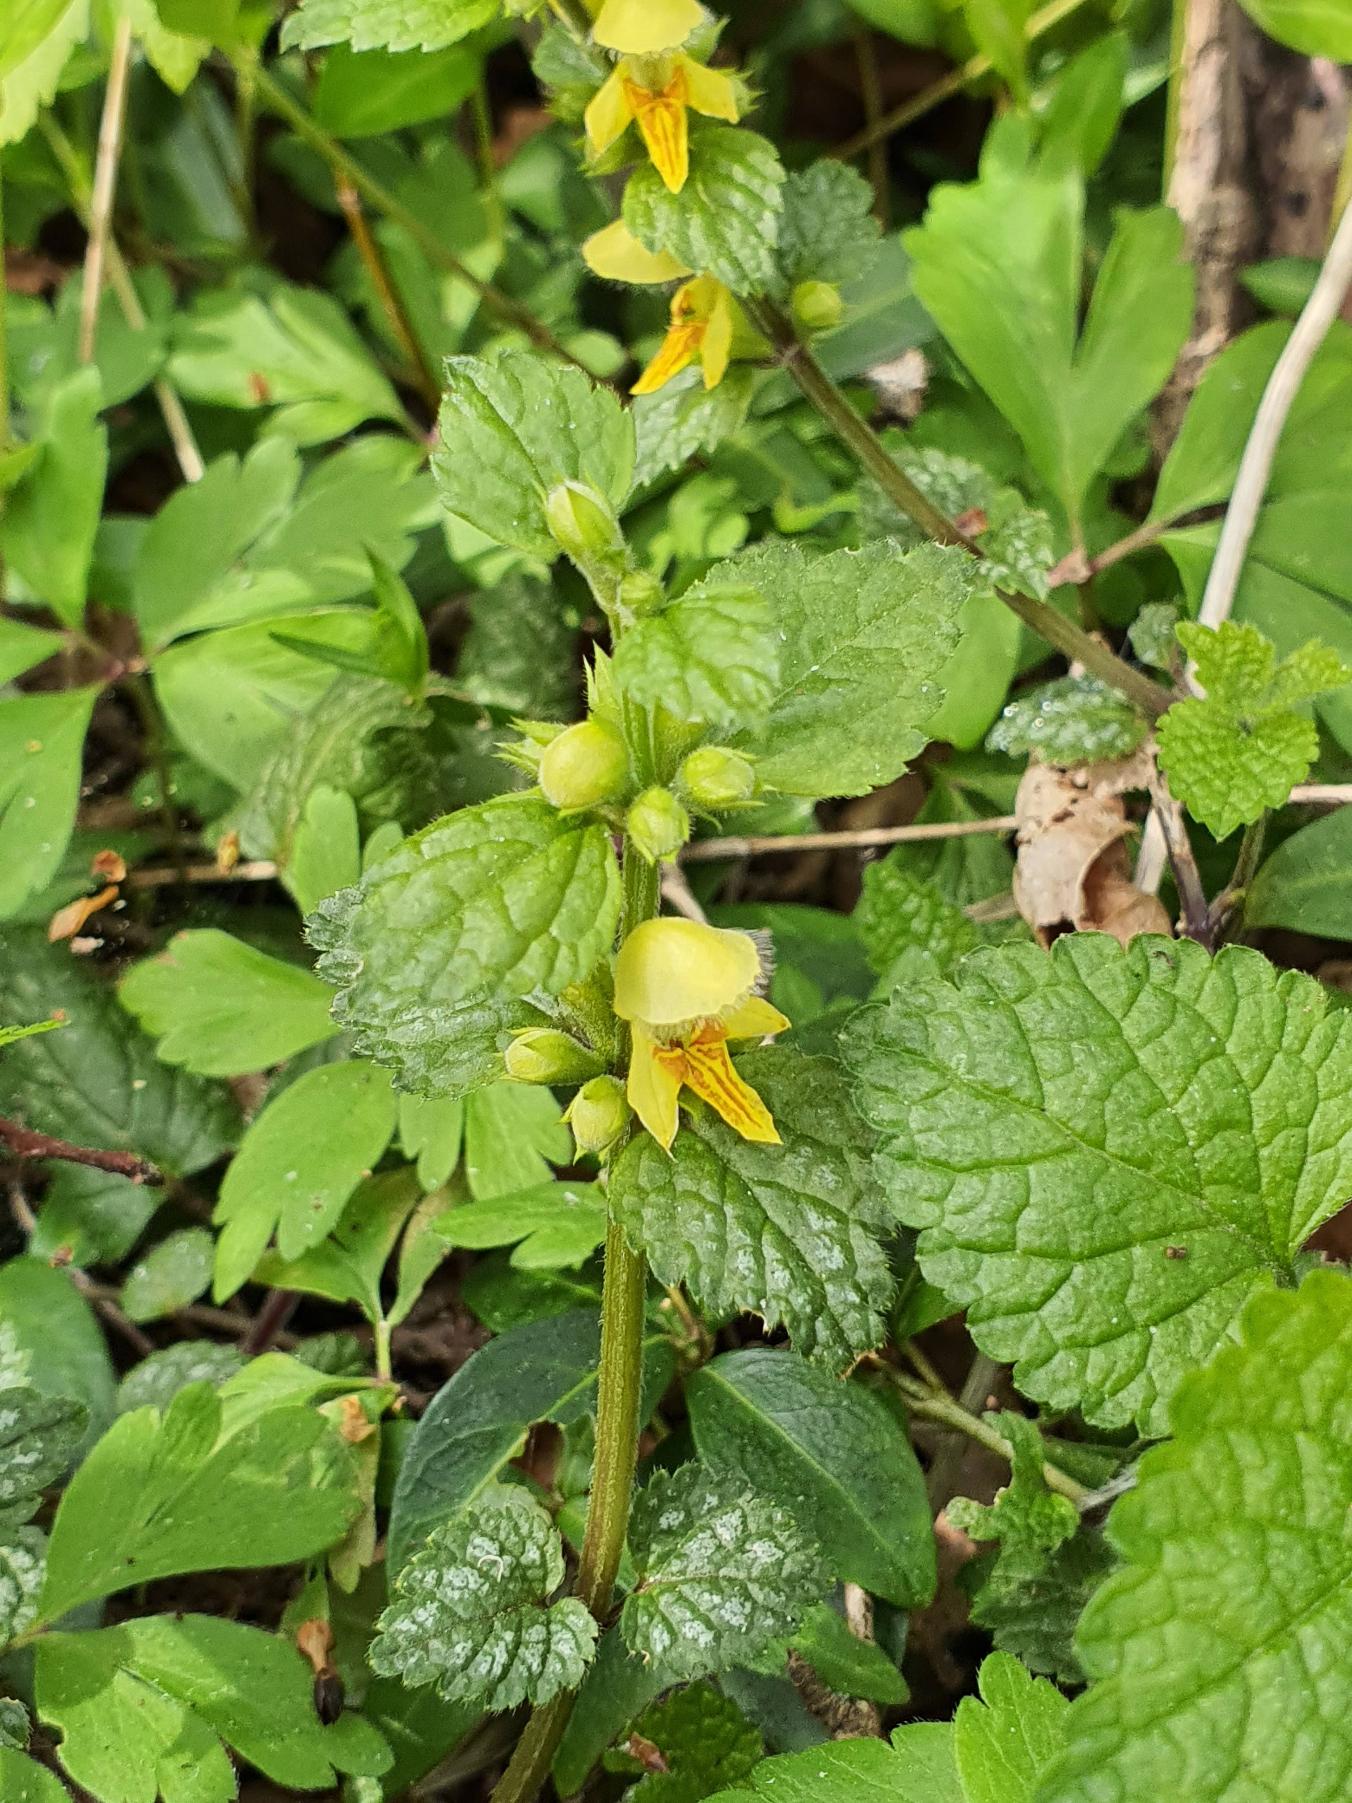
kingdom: Plantae
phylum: Tracheophyta
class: Magnoliopsida
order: Lamiales
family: Lamiaceae
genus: Lamium
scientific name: Lamium galeobdolon
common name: Guldnælde
